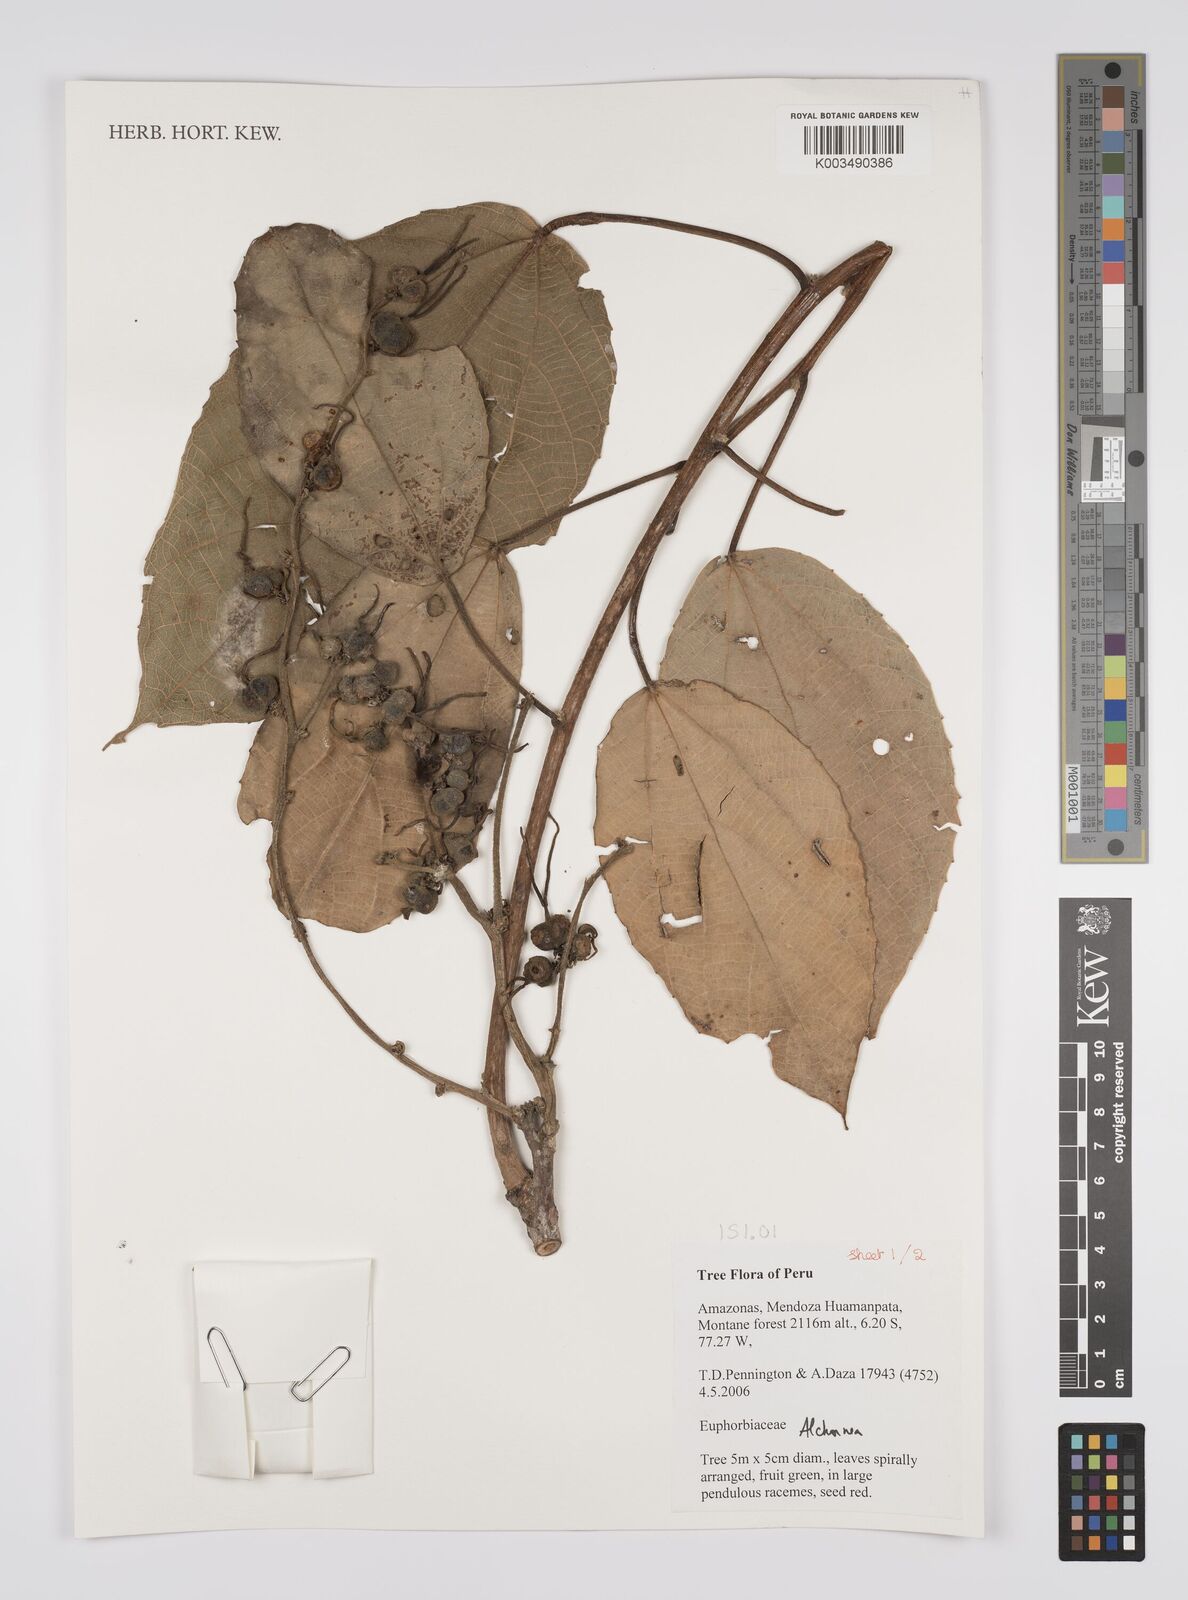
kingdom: Plantae
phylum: Tracheophyta
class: Magnoliopsida
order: Malpighiales
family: Euphorbiaceae
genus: Alchornea
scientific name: Alchornea
